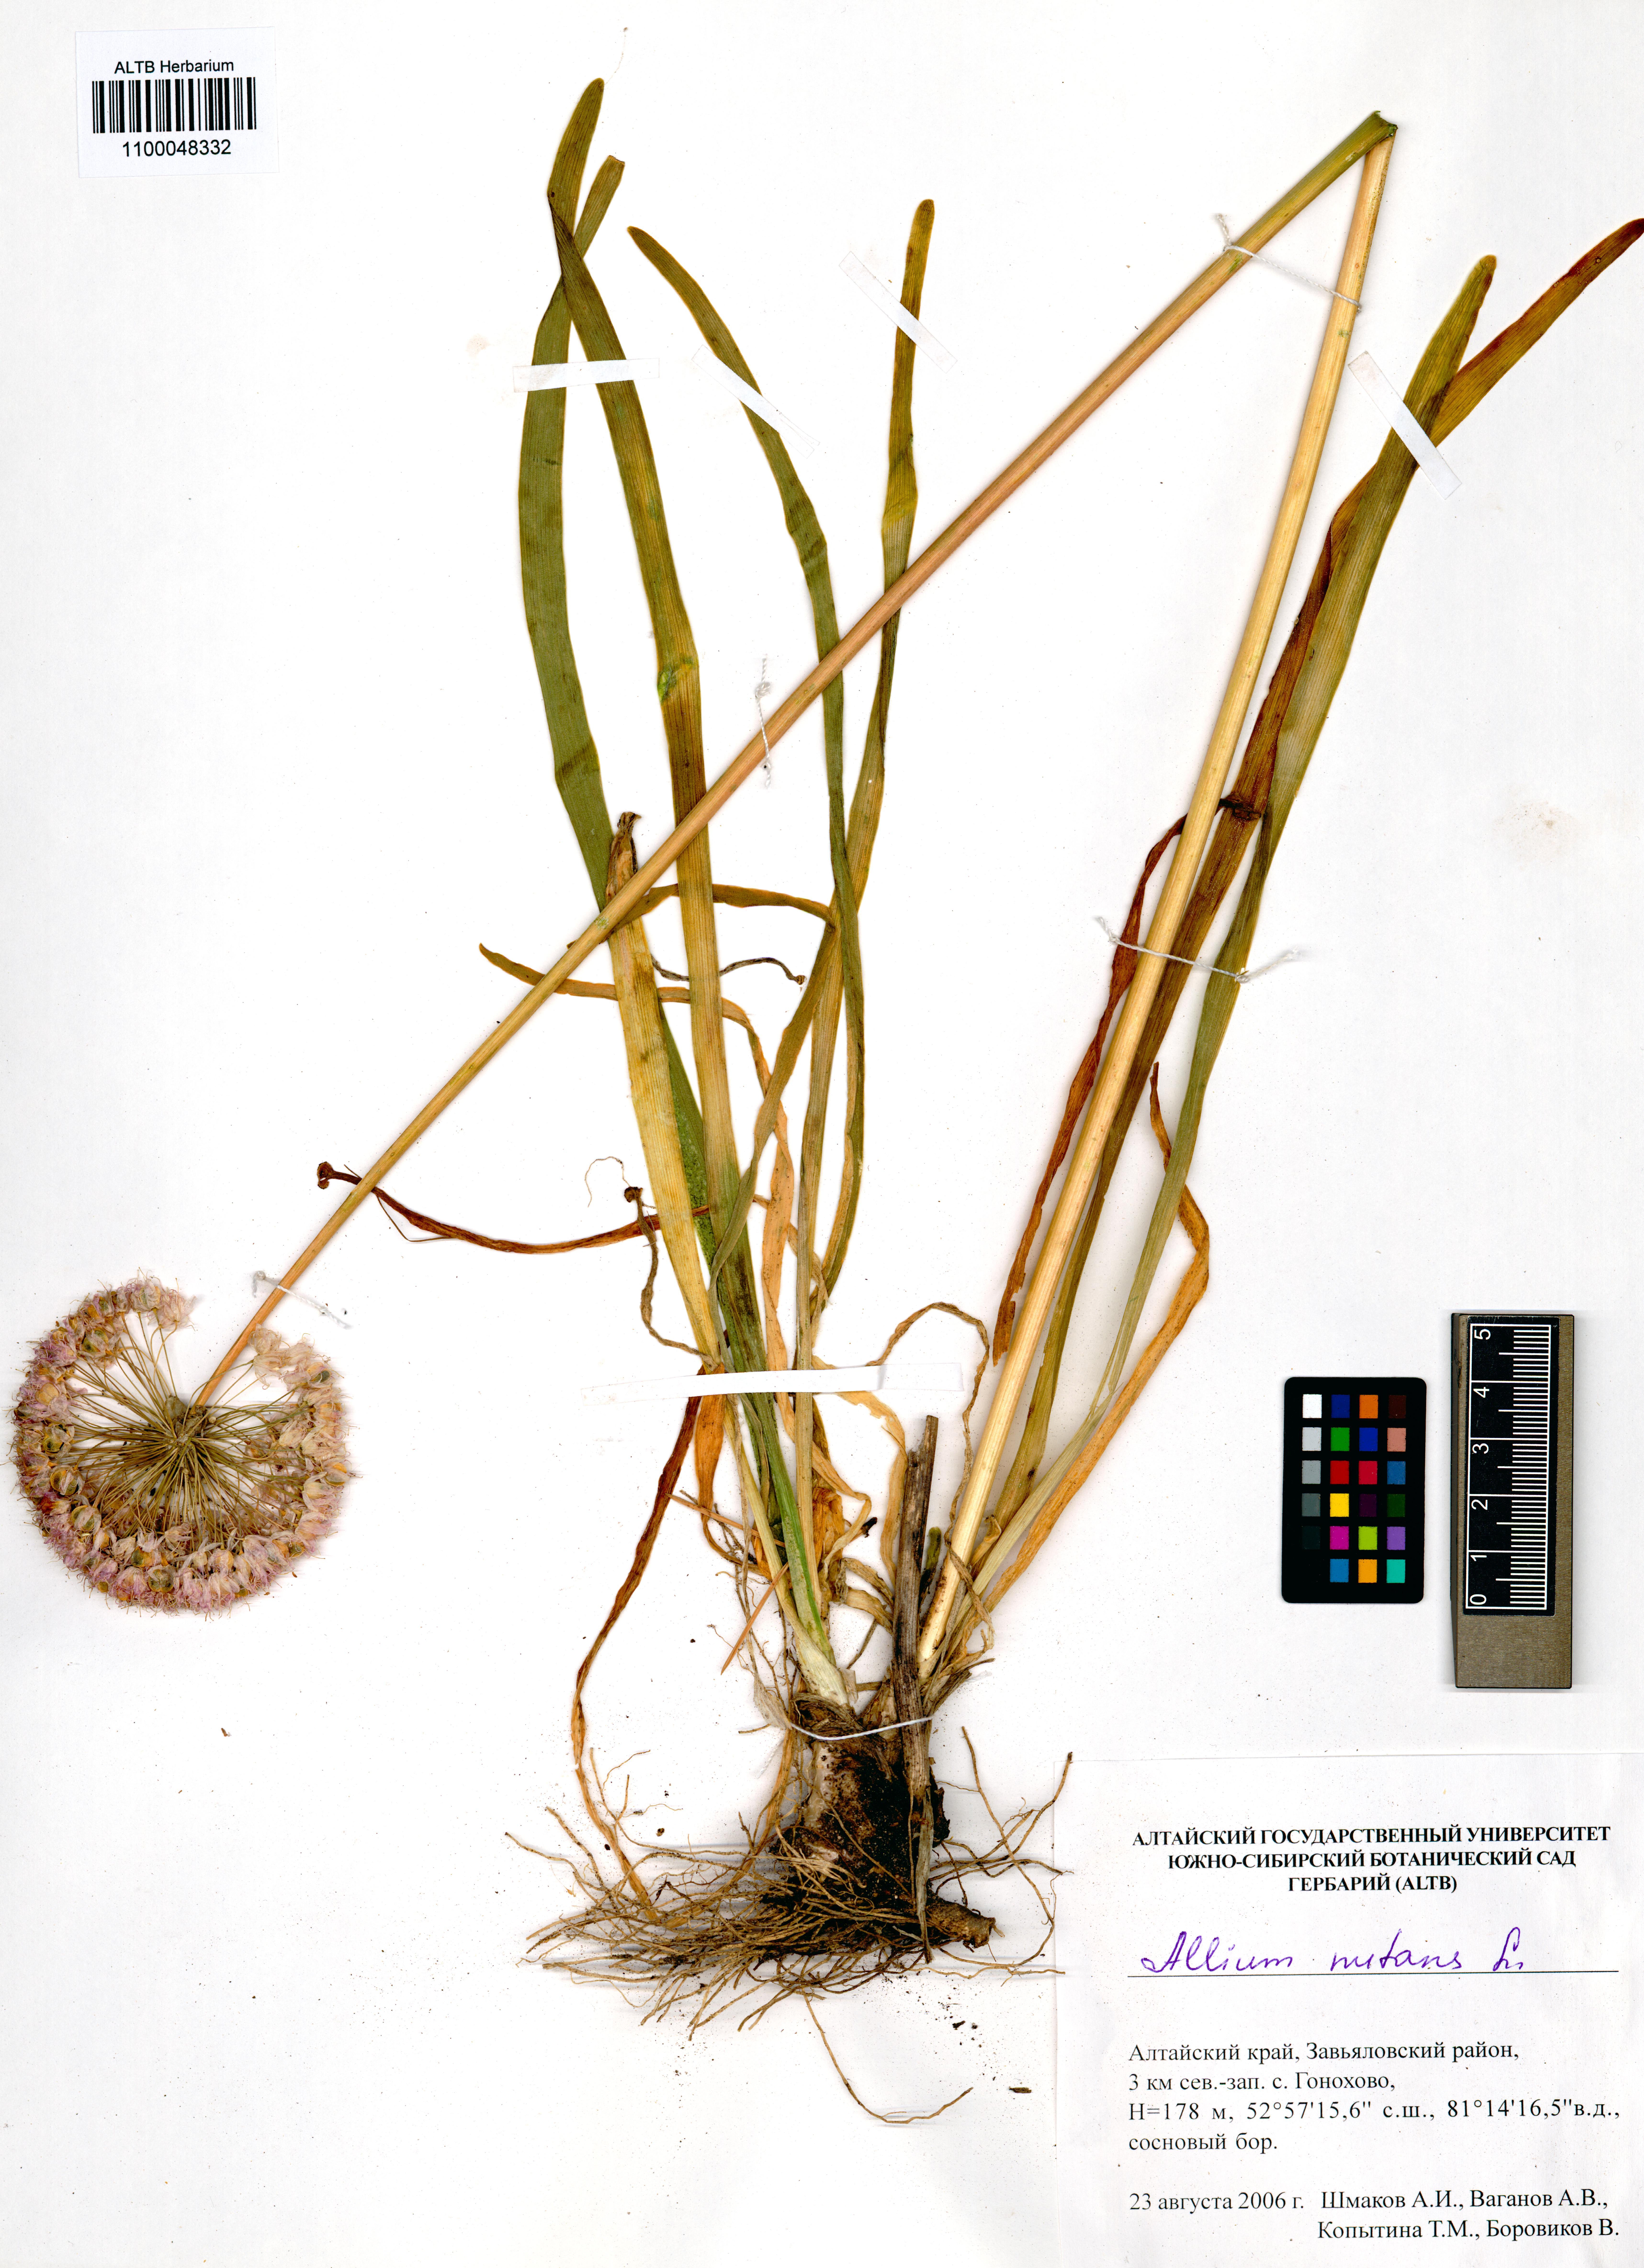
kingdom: Plantae
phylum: Tracheophyta
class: Liliopsida
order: Asparagales
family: Amaryllidaceae
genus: Allium
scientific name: Allium nutans
